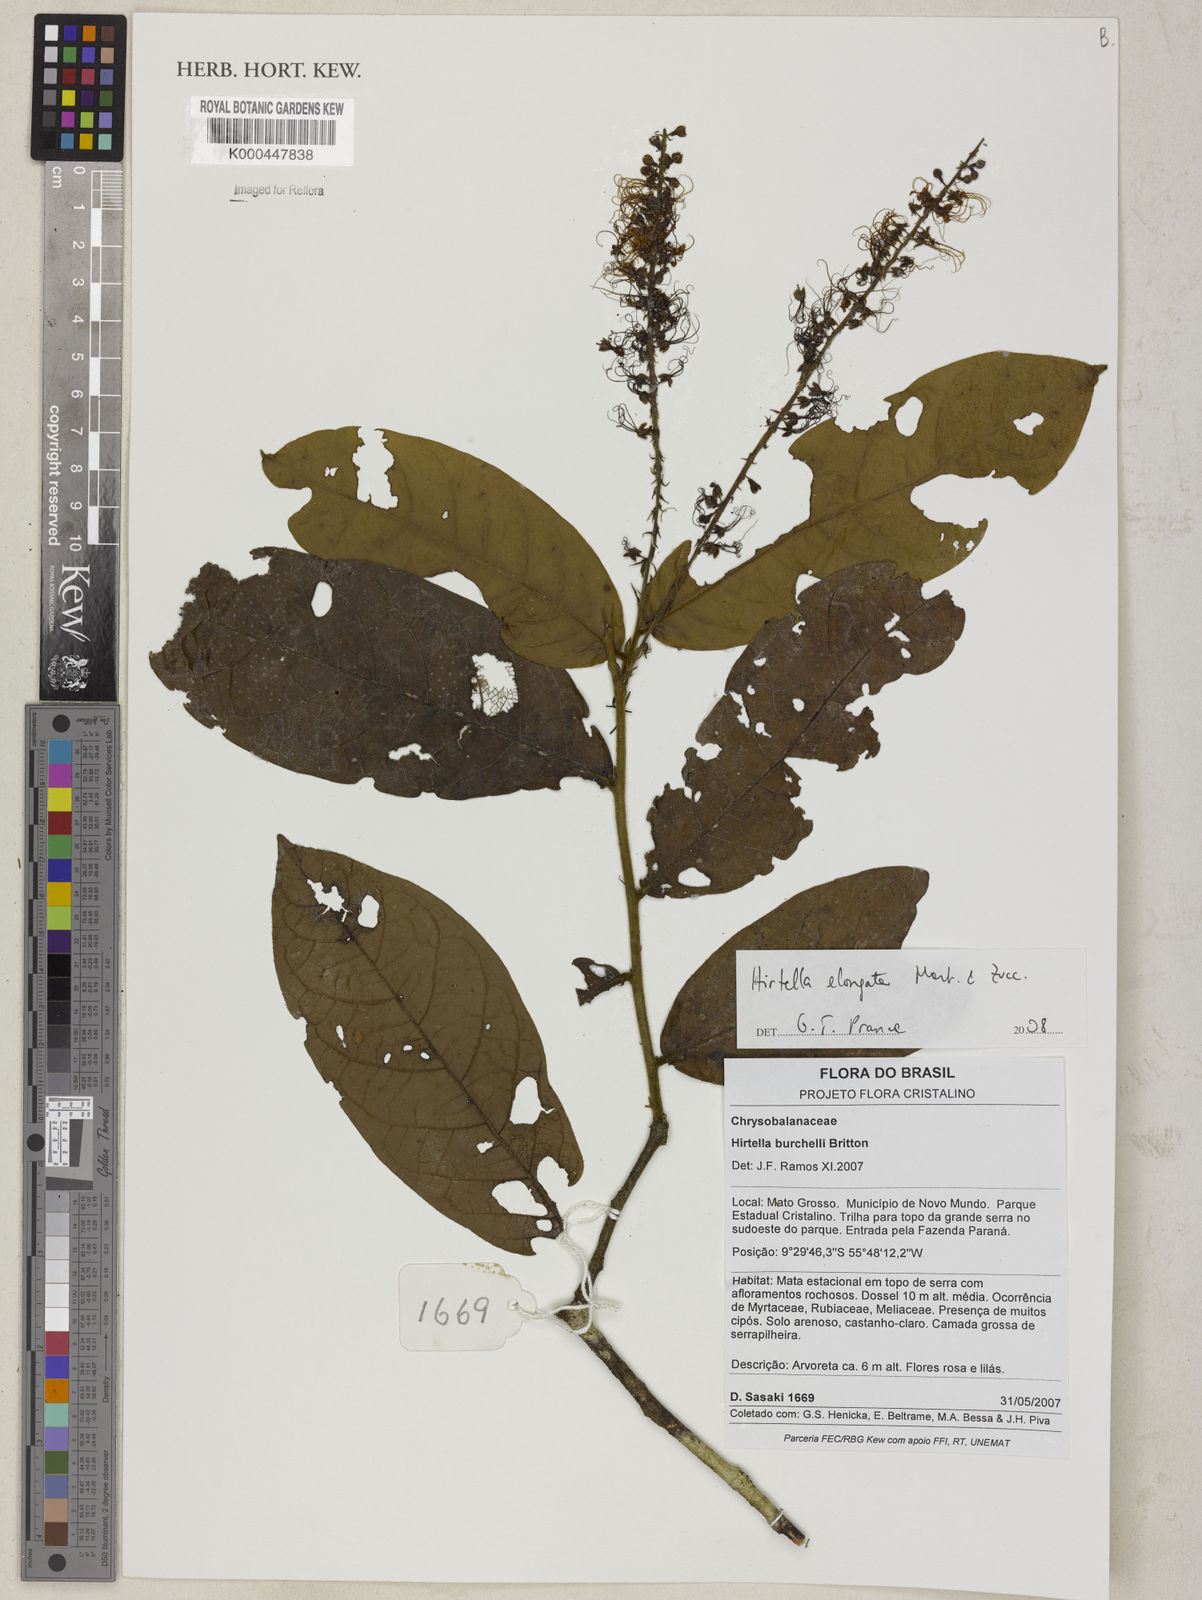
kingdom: Plantae
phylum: Tracheophyta
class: Magnoliopsida
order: Malpighiales
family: Chrysobalanaceae
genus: Hirtella
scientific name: Hirtella elongata
